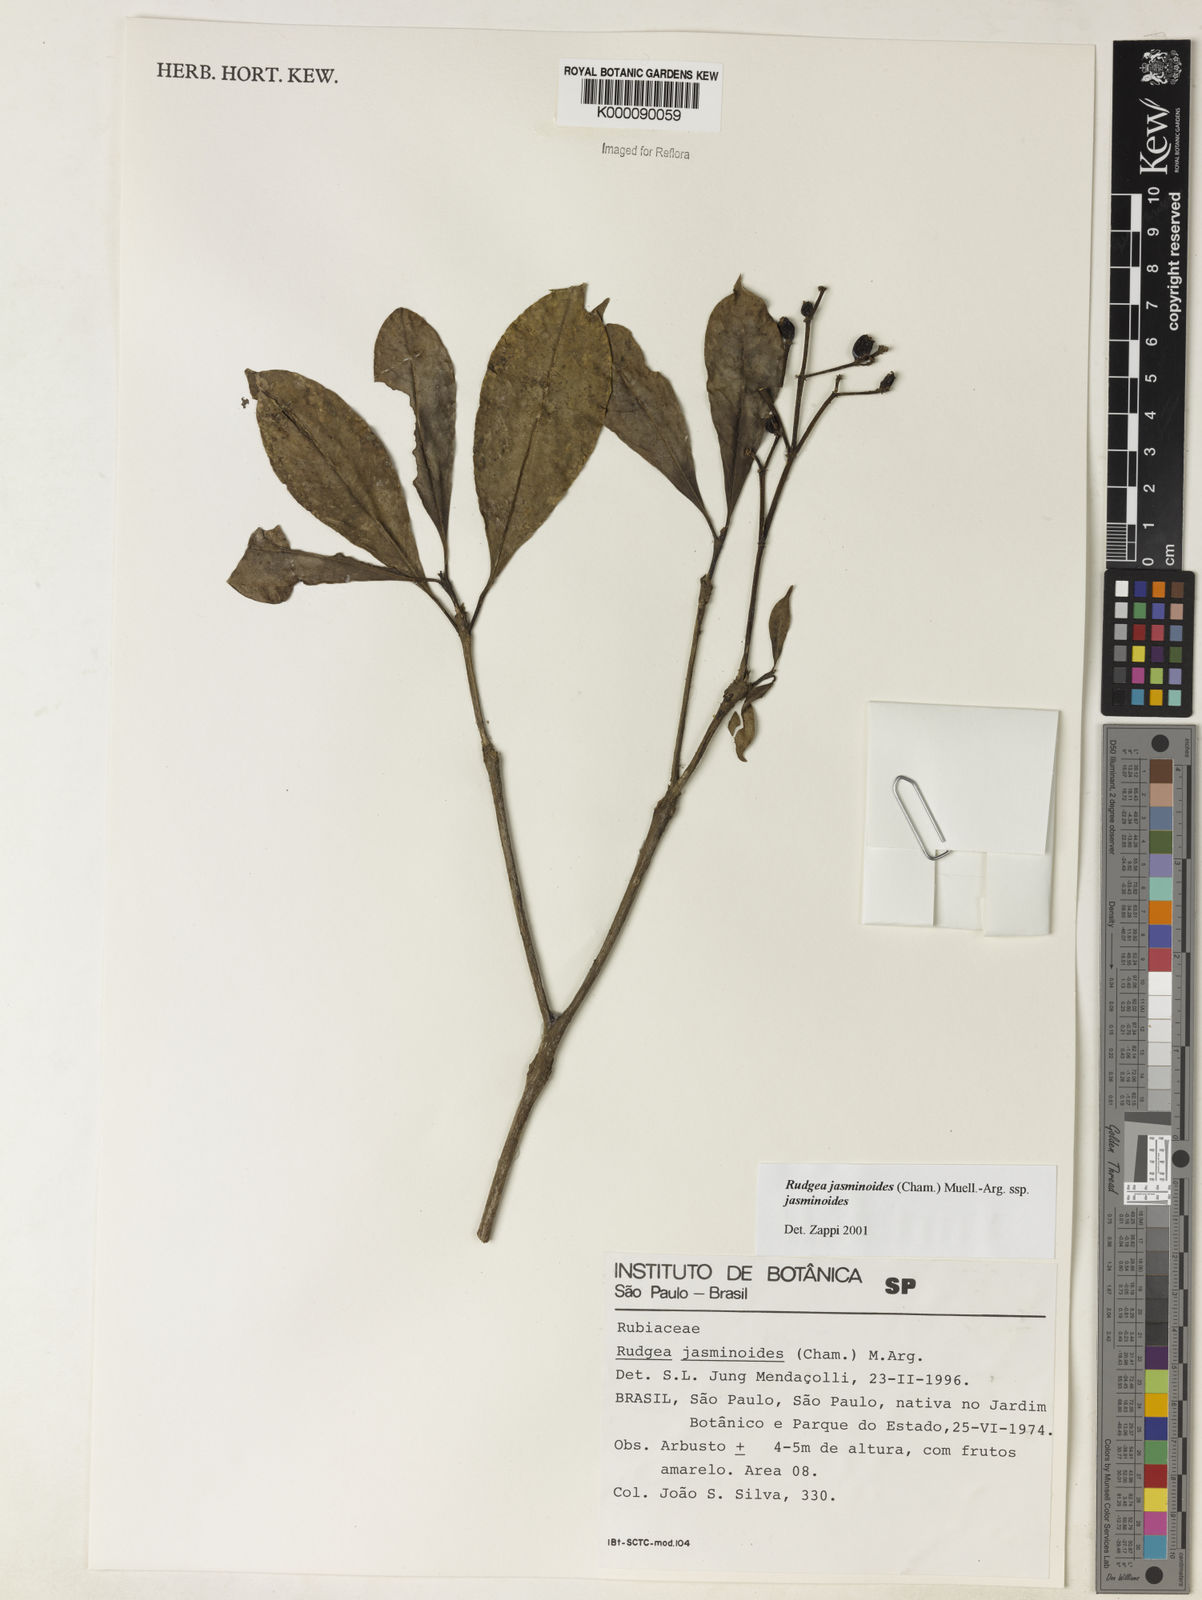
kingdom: Plantae
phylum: Tracheophyta
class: Magnoliopsida
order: Gentianales
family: Rubiaceae
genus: Rudgea
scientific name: Rudgea jasminoides
